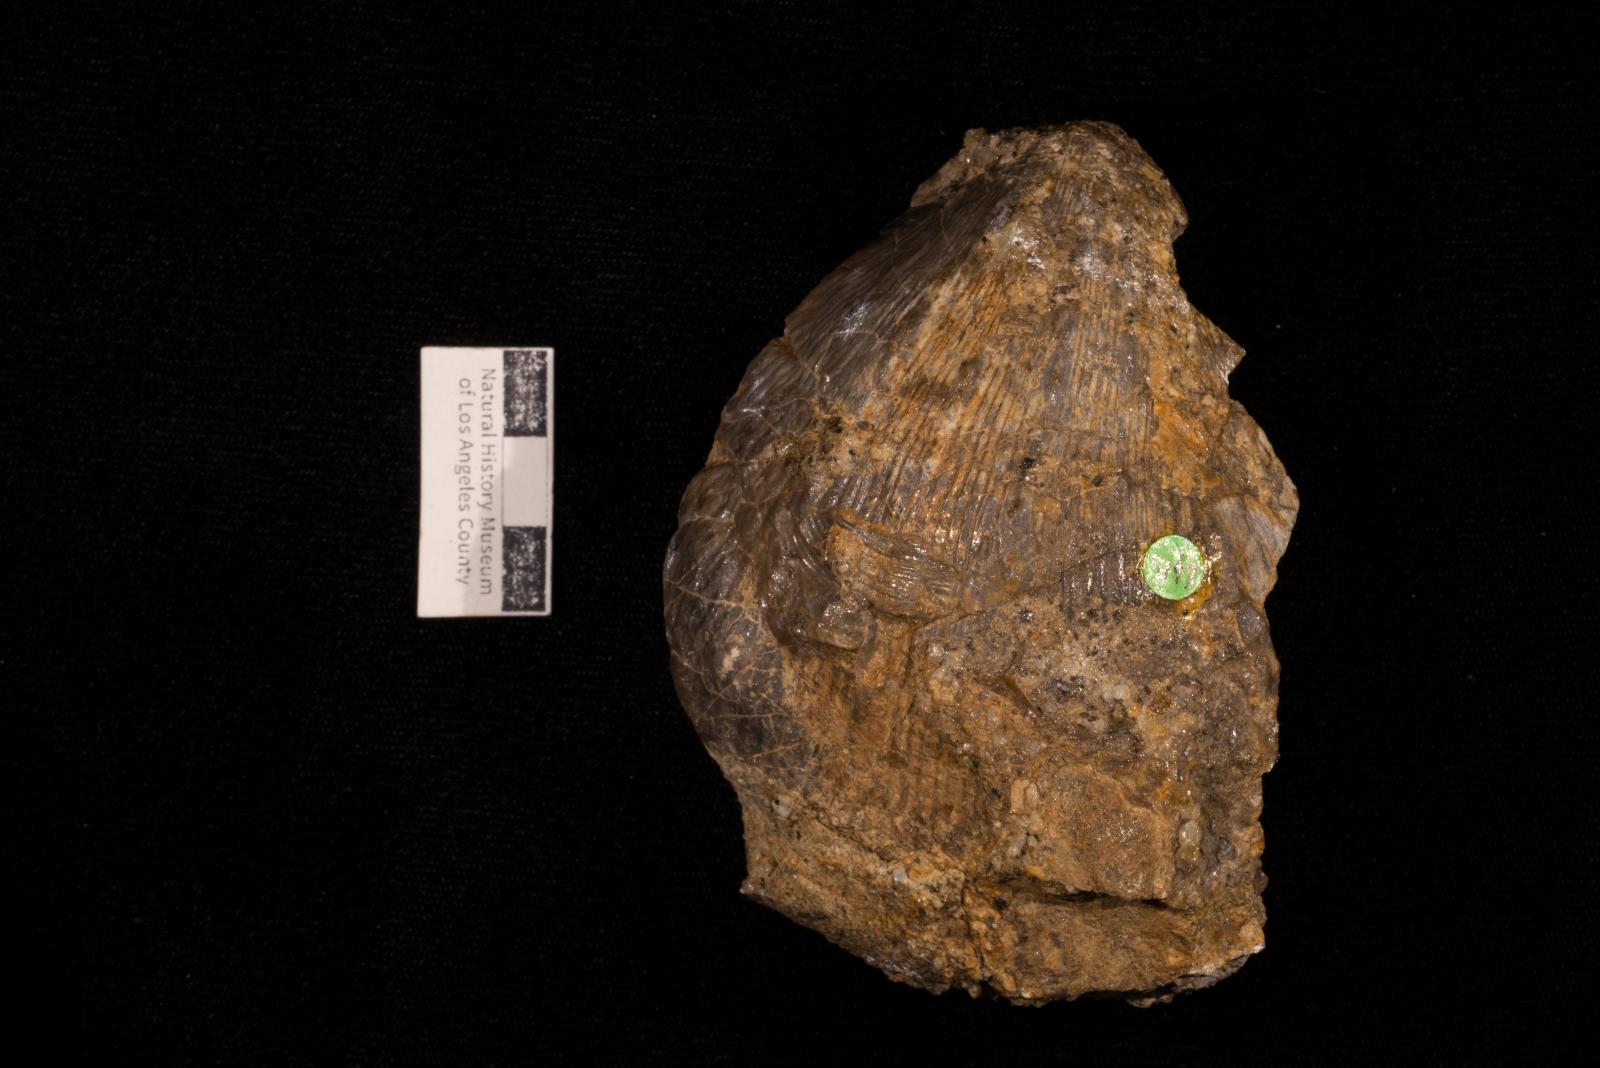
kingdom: Animalia
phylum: Mollusca
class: Bivalvia
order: Pectinida
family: Spondylidae
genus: Spondylus
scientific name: Spondylus subnodosus
